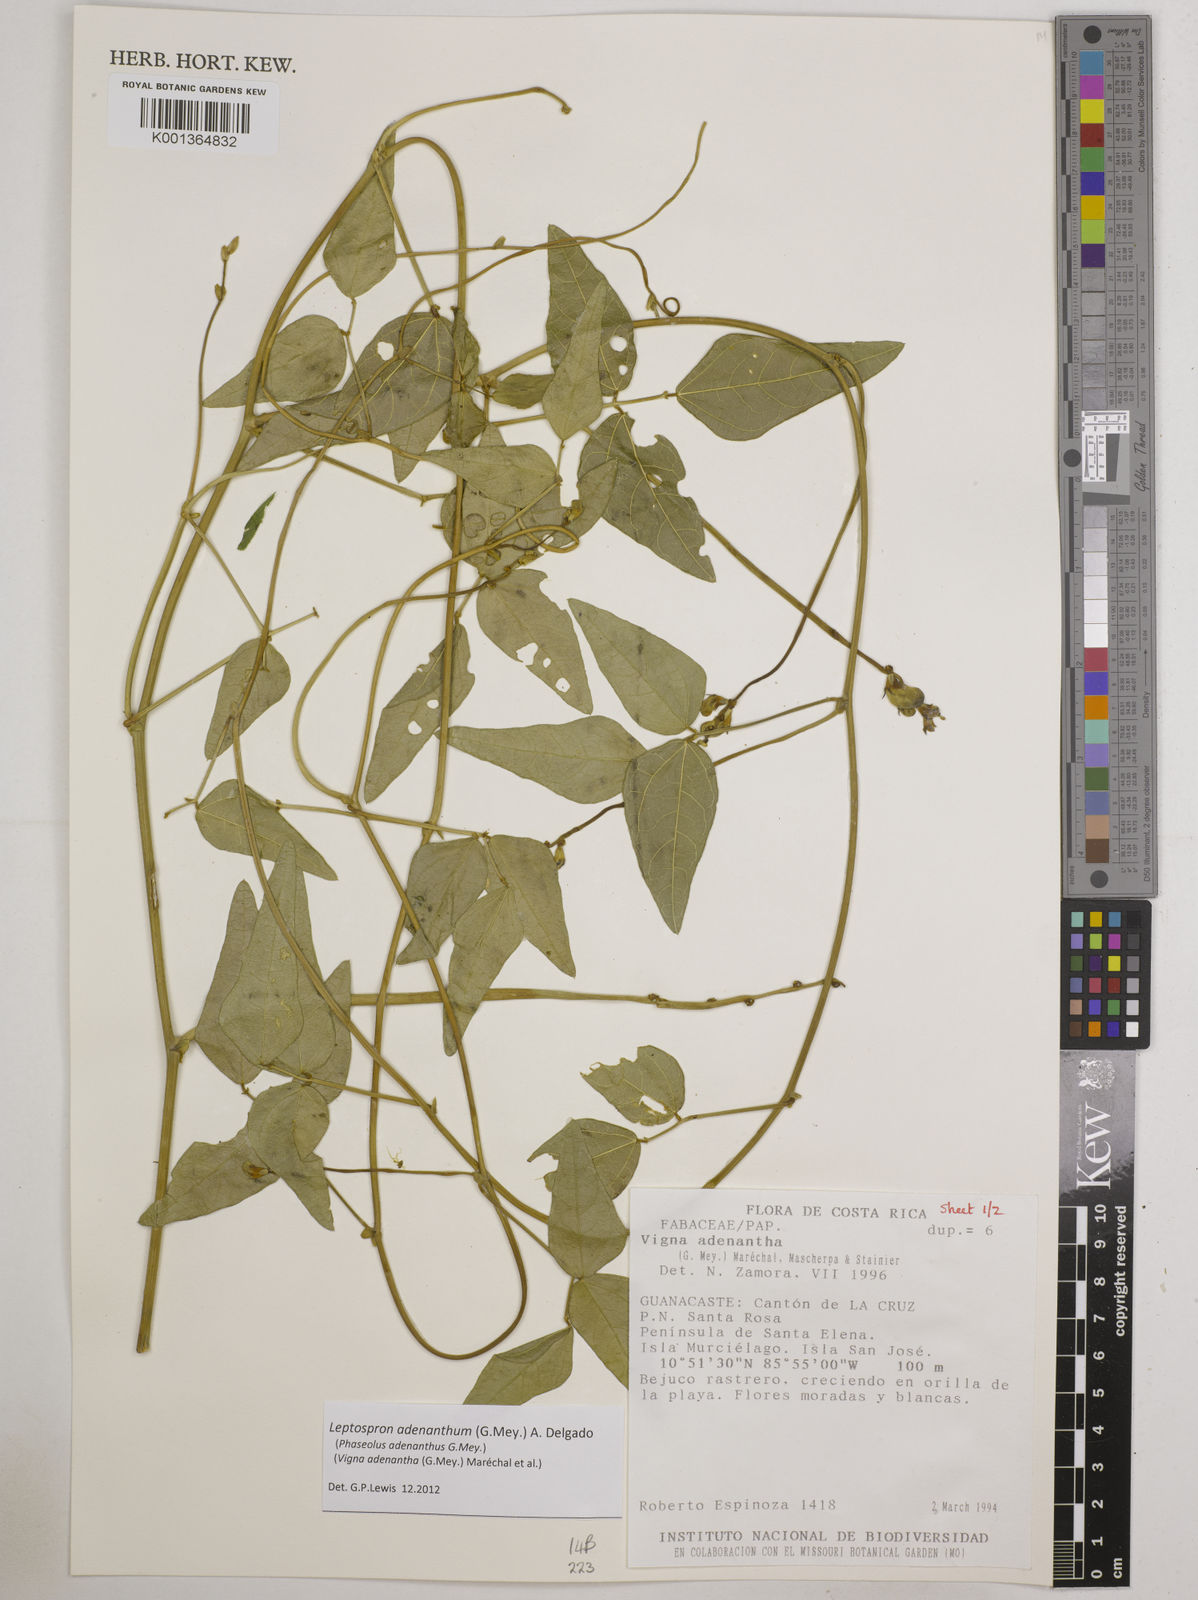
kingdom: Plantae
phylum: Tracheophyta
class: Magnoliopsida
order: Fabales
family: Fabaceae
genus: Leptospron
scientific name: Leptospron adenanthum
